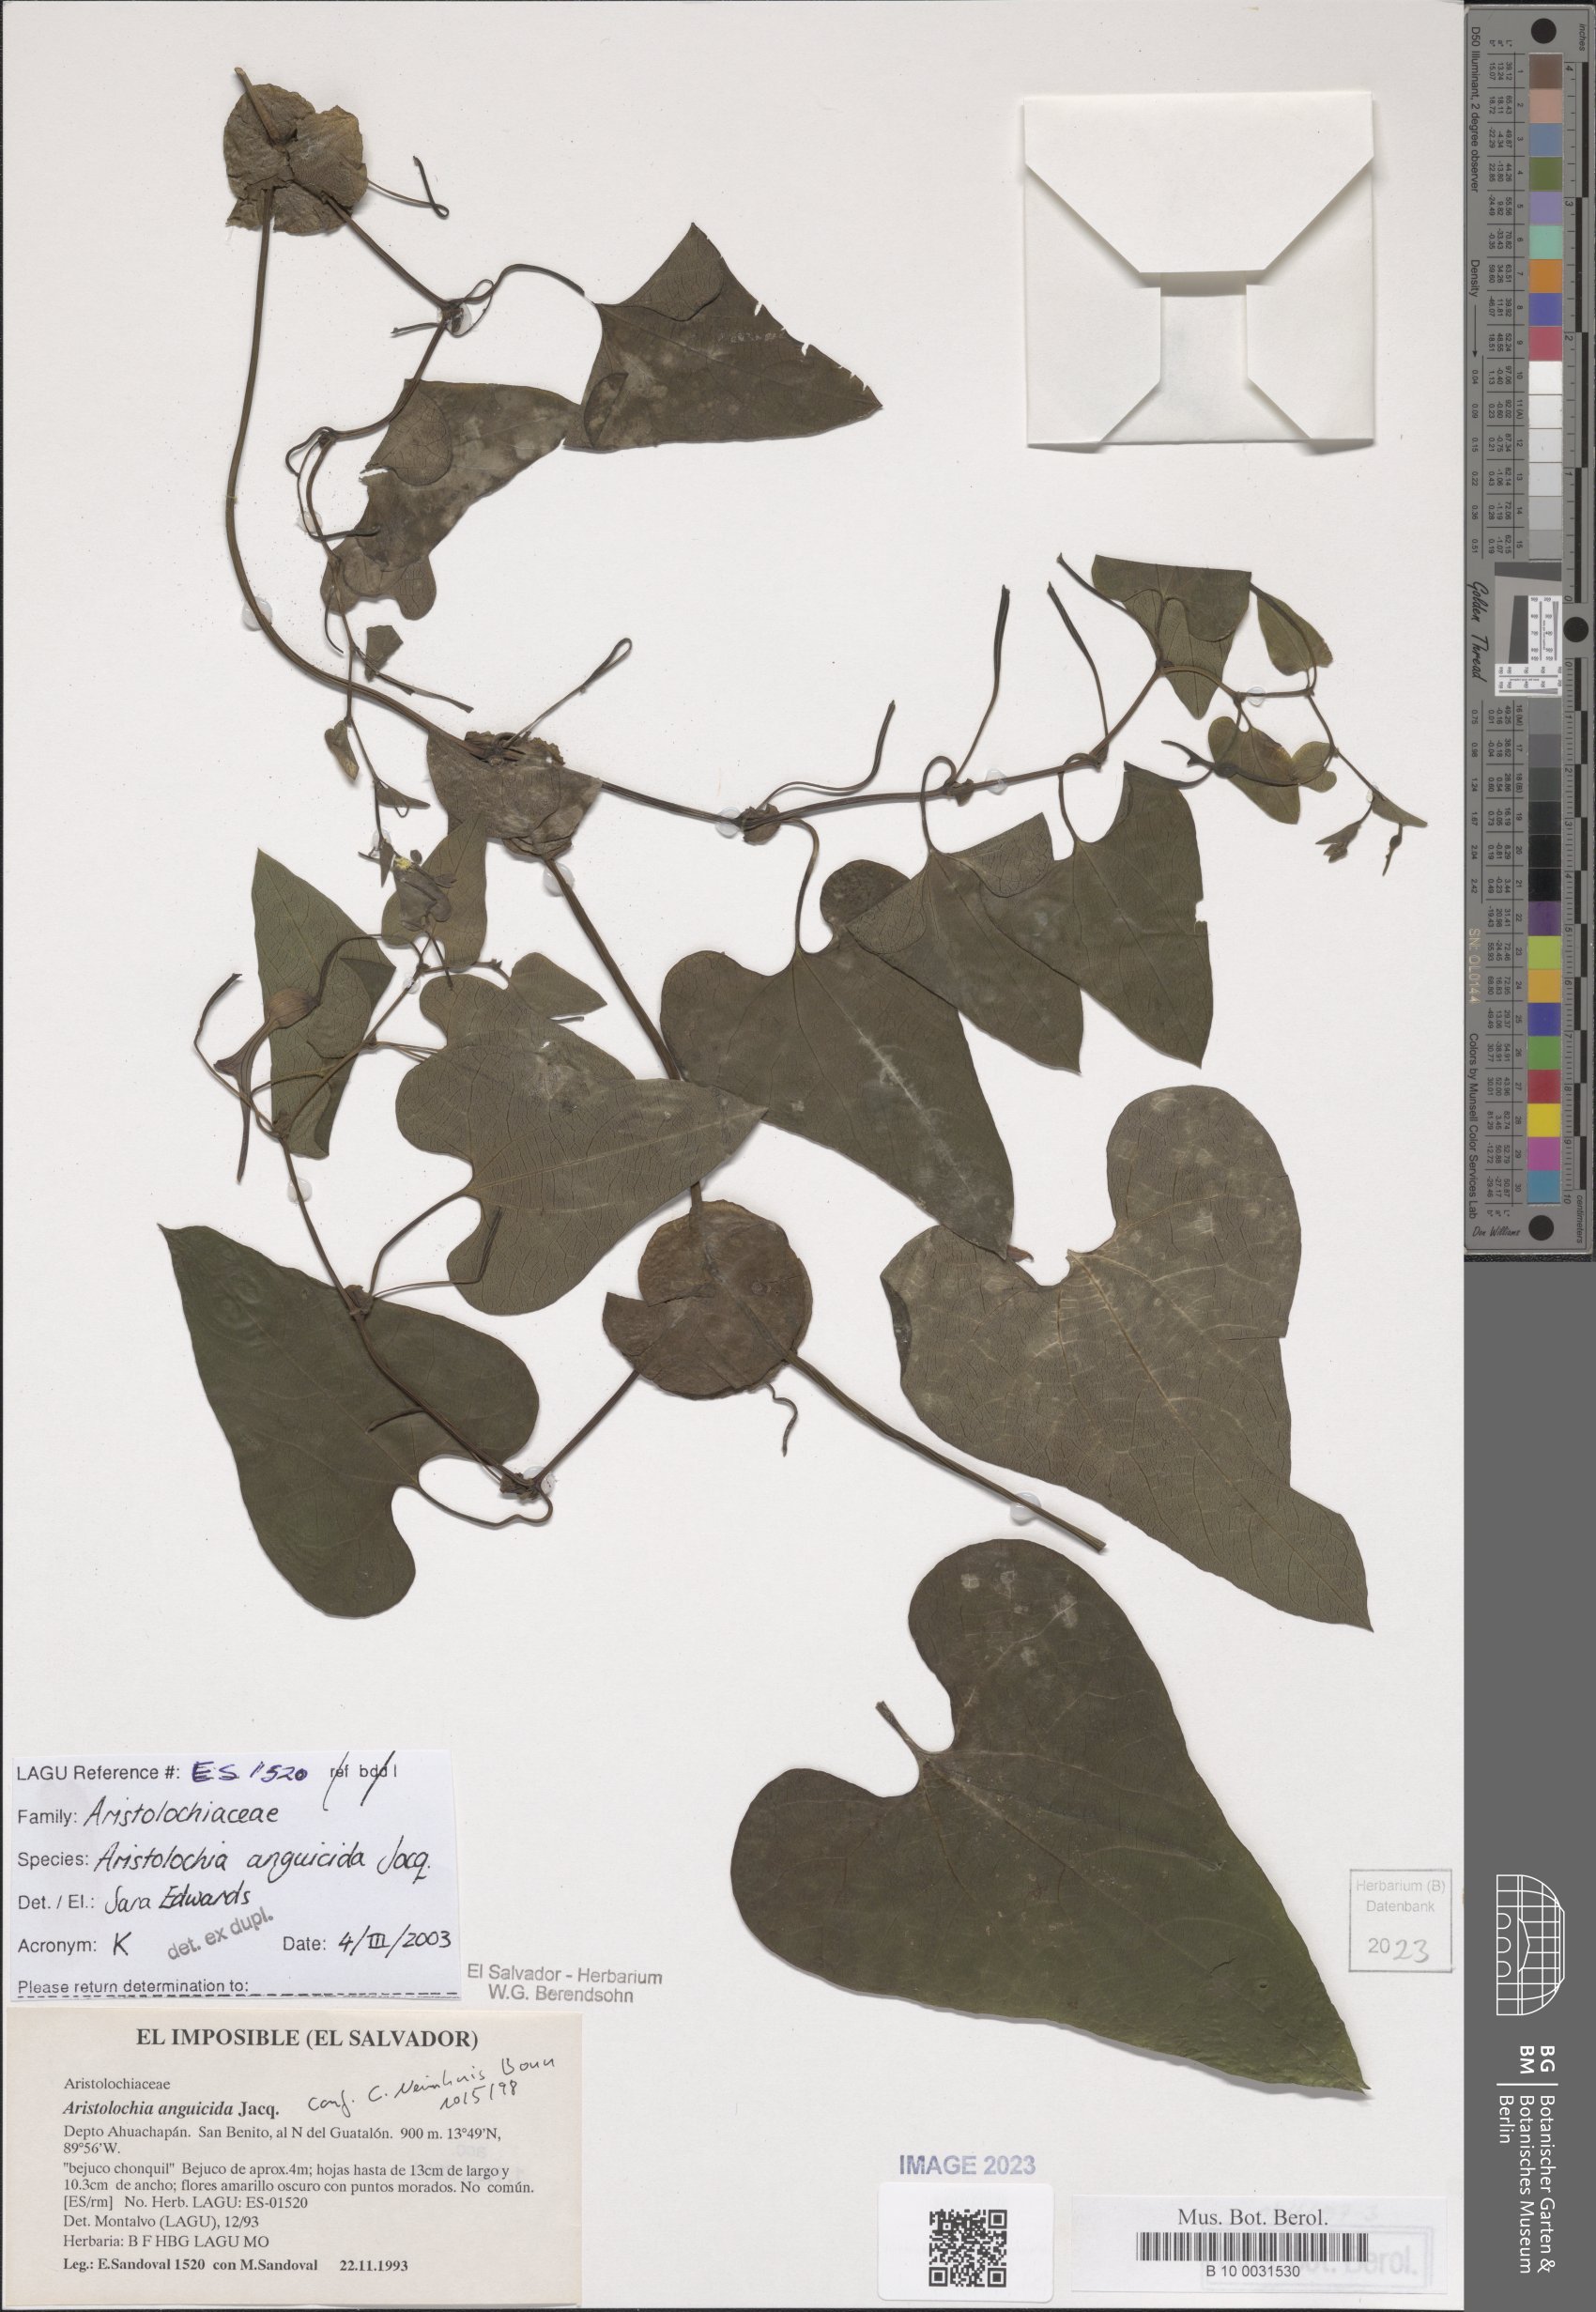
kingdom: Plantae
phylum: Tracheophyta
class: Magnoliopsida
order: Piperales
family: Aristolochiaceae
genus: Aristolochia
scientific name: Aristolochia anguicida
